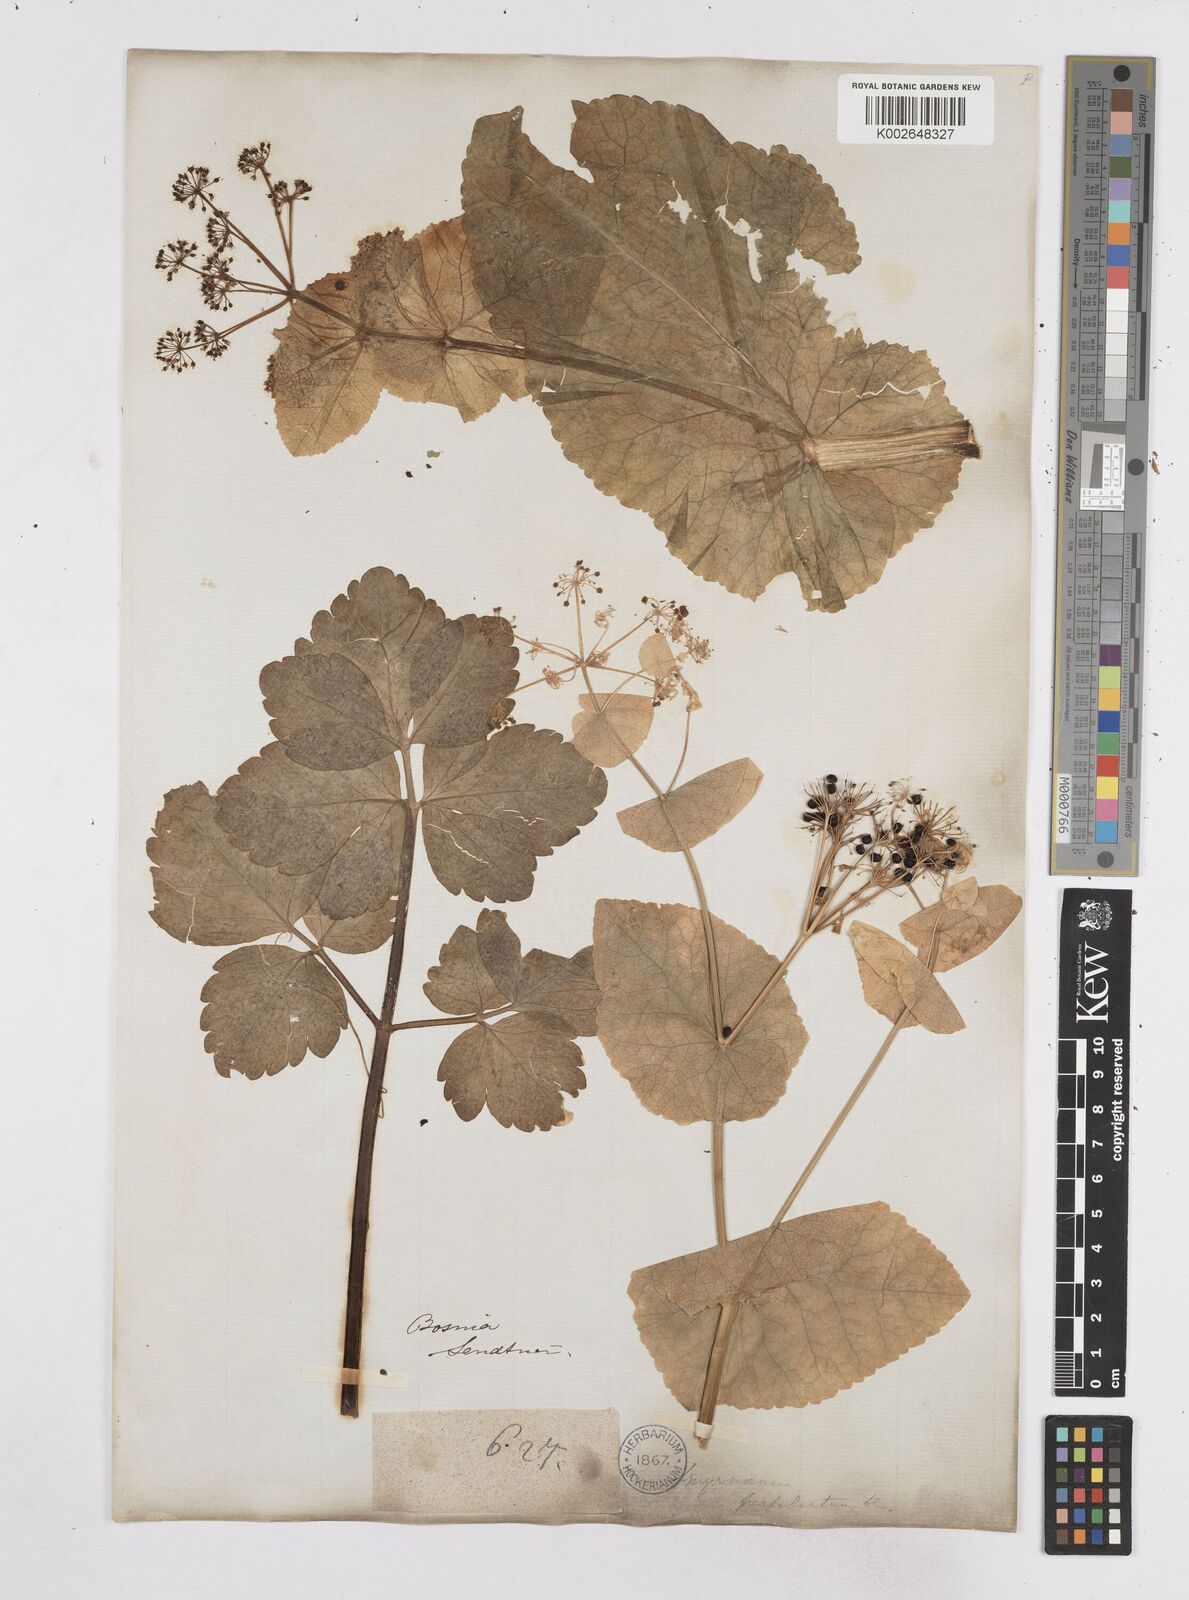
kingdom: Plantae
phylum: Tracheophyta
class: Magnoliopsida
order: Apiales
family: Apiaceae
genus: Smyrnium
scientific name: Smyrnium perfoliatum
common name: Perfoliate alexanders
